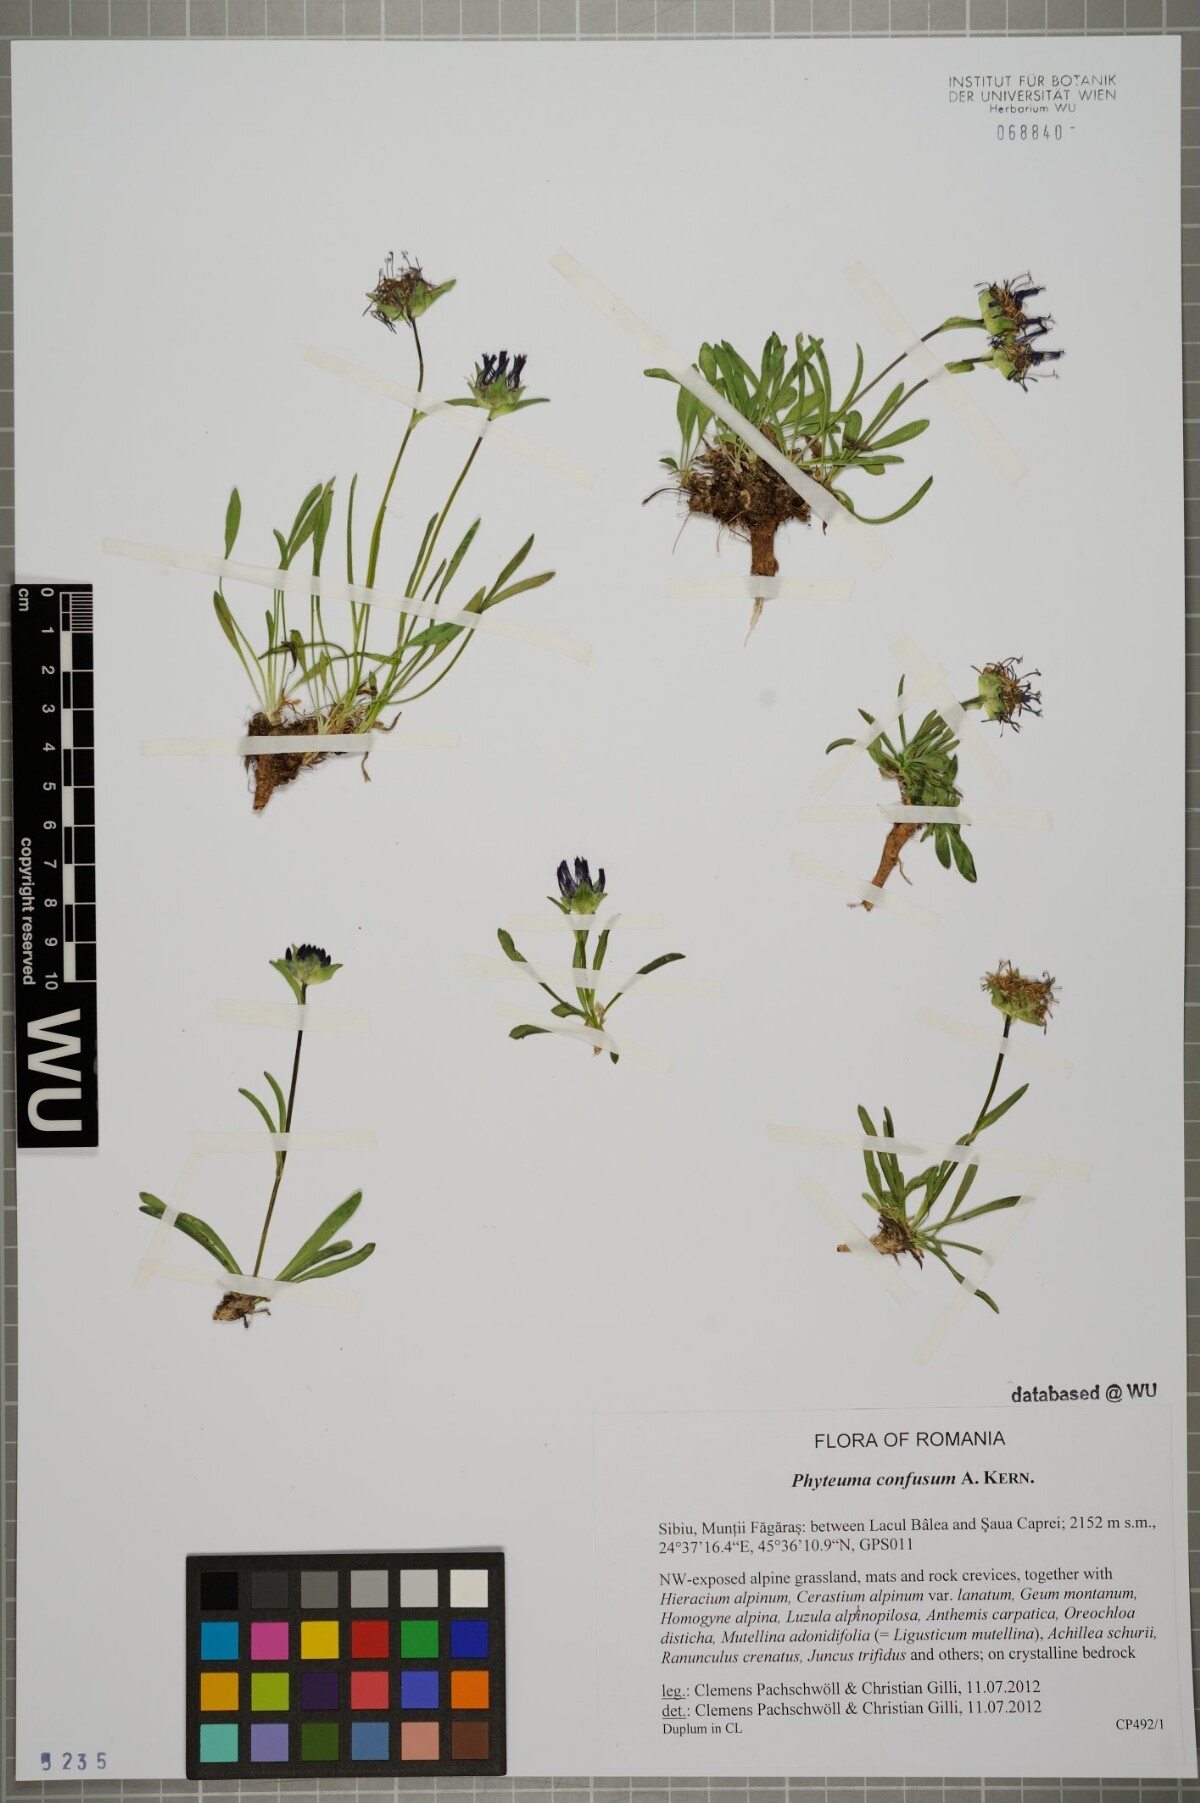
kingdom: Plantae
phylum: Tracheophyta
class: Magnoliopsida
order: Asterales
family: Campanulaceae
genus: Phyteuma
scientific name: Phyteuma confusum
